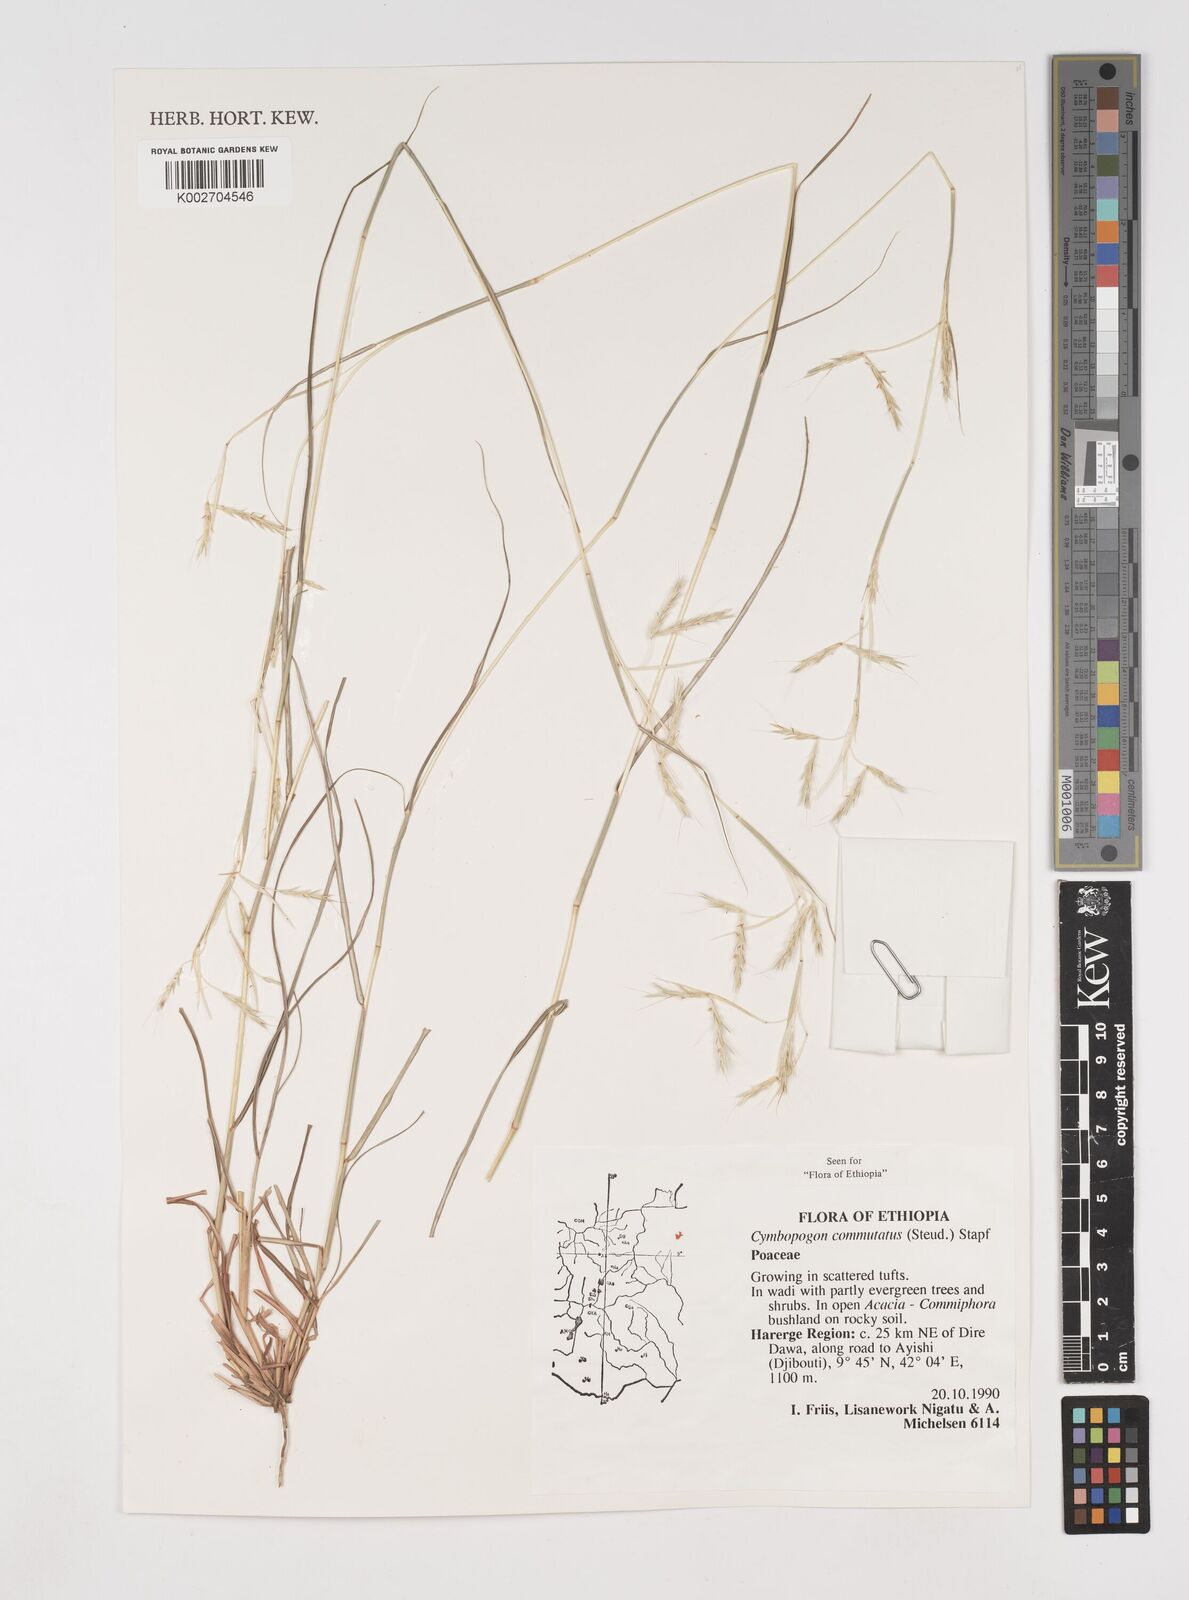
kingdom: Plantae
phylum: Tracheophyta
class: Liliopsida
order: Poales
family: Poaceae
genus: Cymbopogon
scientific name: Cymbopogon
